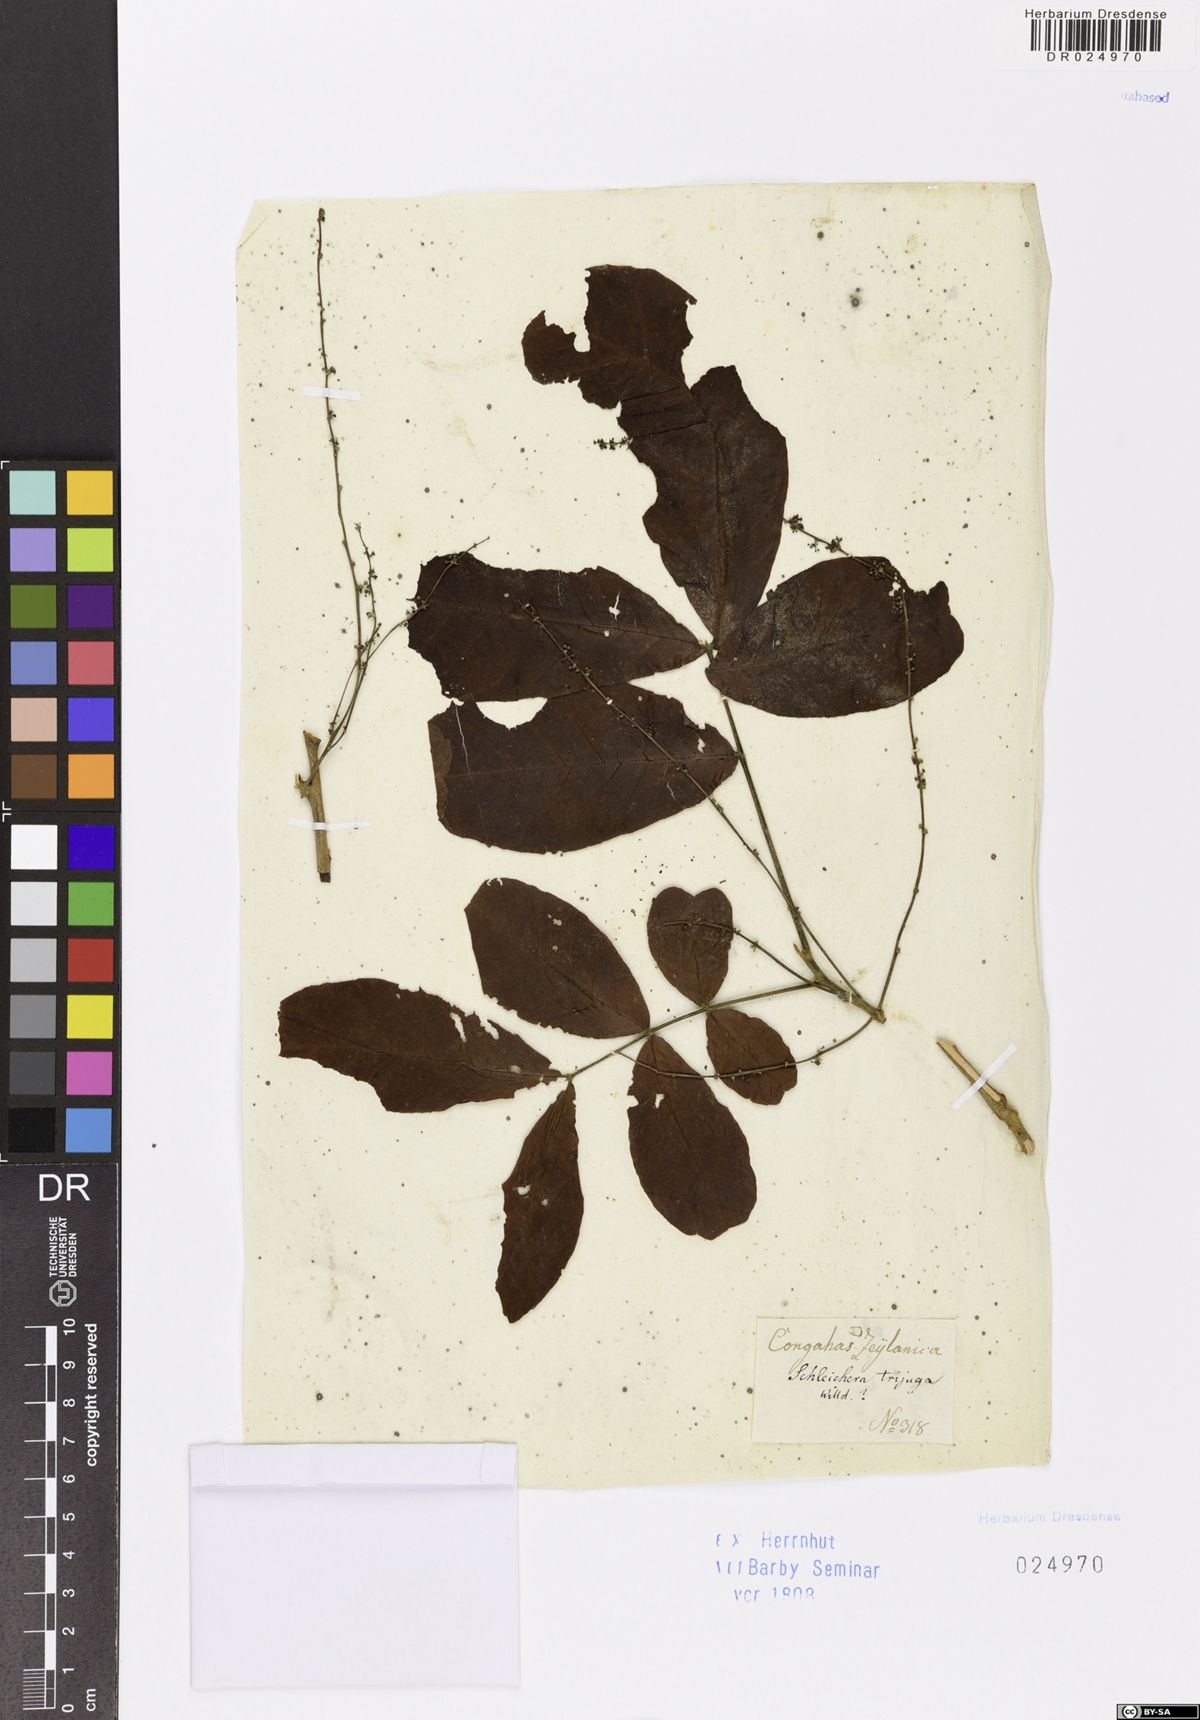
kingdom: Plantae
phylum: Tracheophyta
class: Magnoliopsida
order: Sapindales
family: Sapindaceae
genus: Schleichera
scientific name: Schleichera oleosa
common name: Malay lactree
